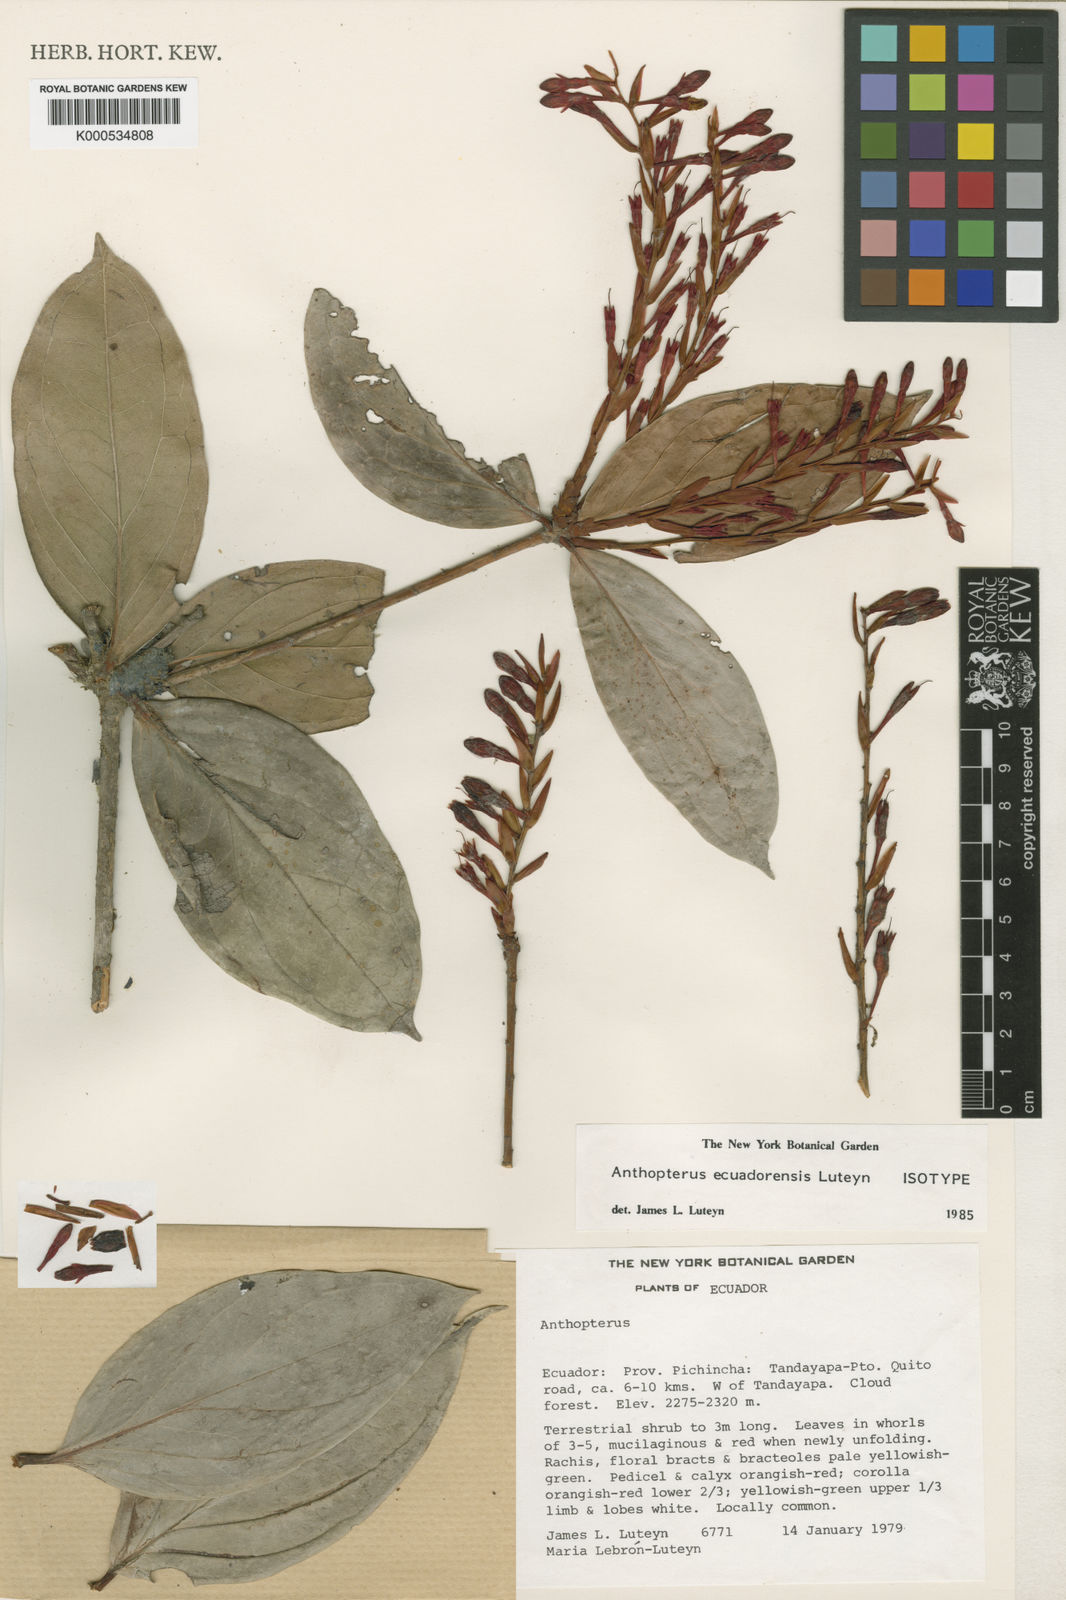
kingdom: Plantae
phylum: Tracheophyta
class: Magnoliopsida
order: Ericales
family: Ericaceae
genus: Anthopterus
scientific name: Anthopterus ecuadorensis
